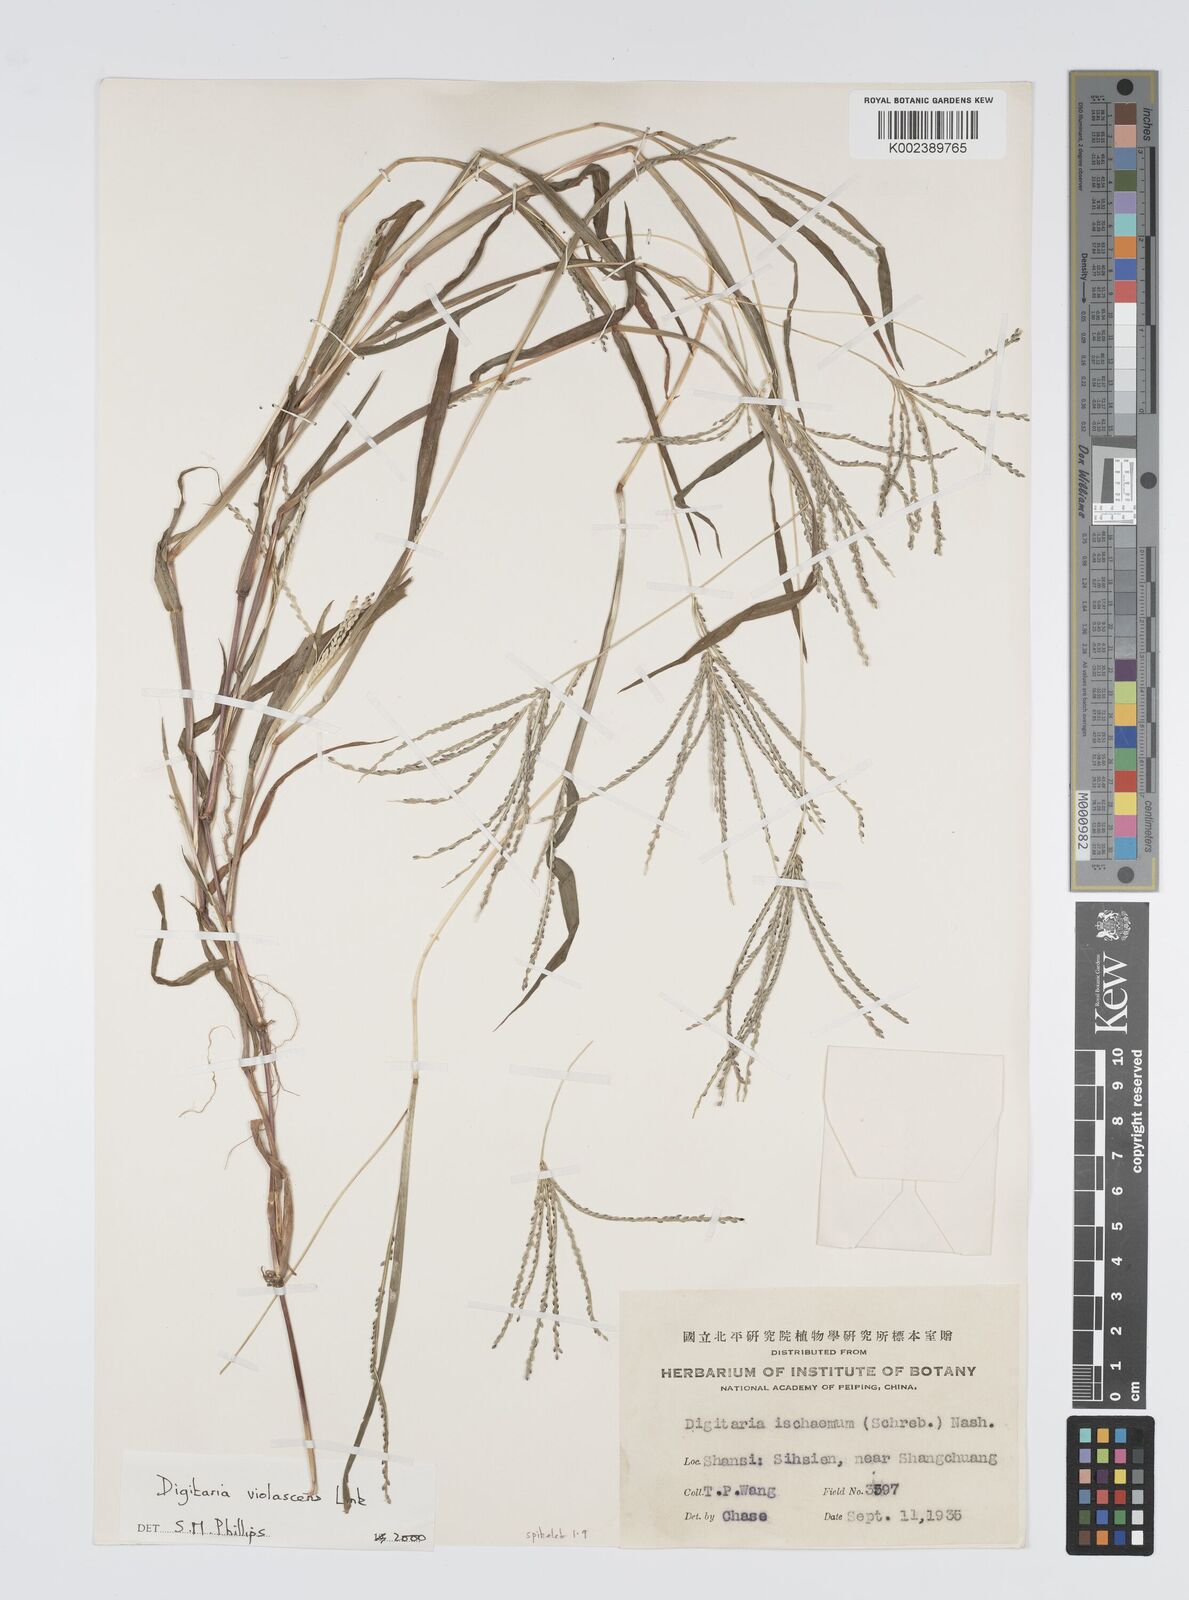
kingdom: Plantae
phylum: Tracheophyta
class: Liliopsida
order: Poales
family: Poaceae
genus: Digitaria
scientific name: Digitaria violascens
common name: Violet crabgrass
